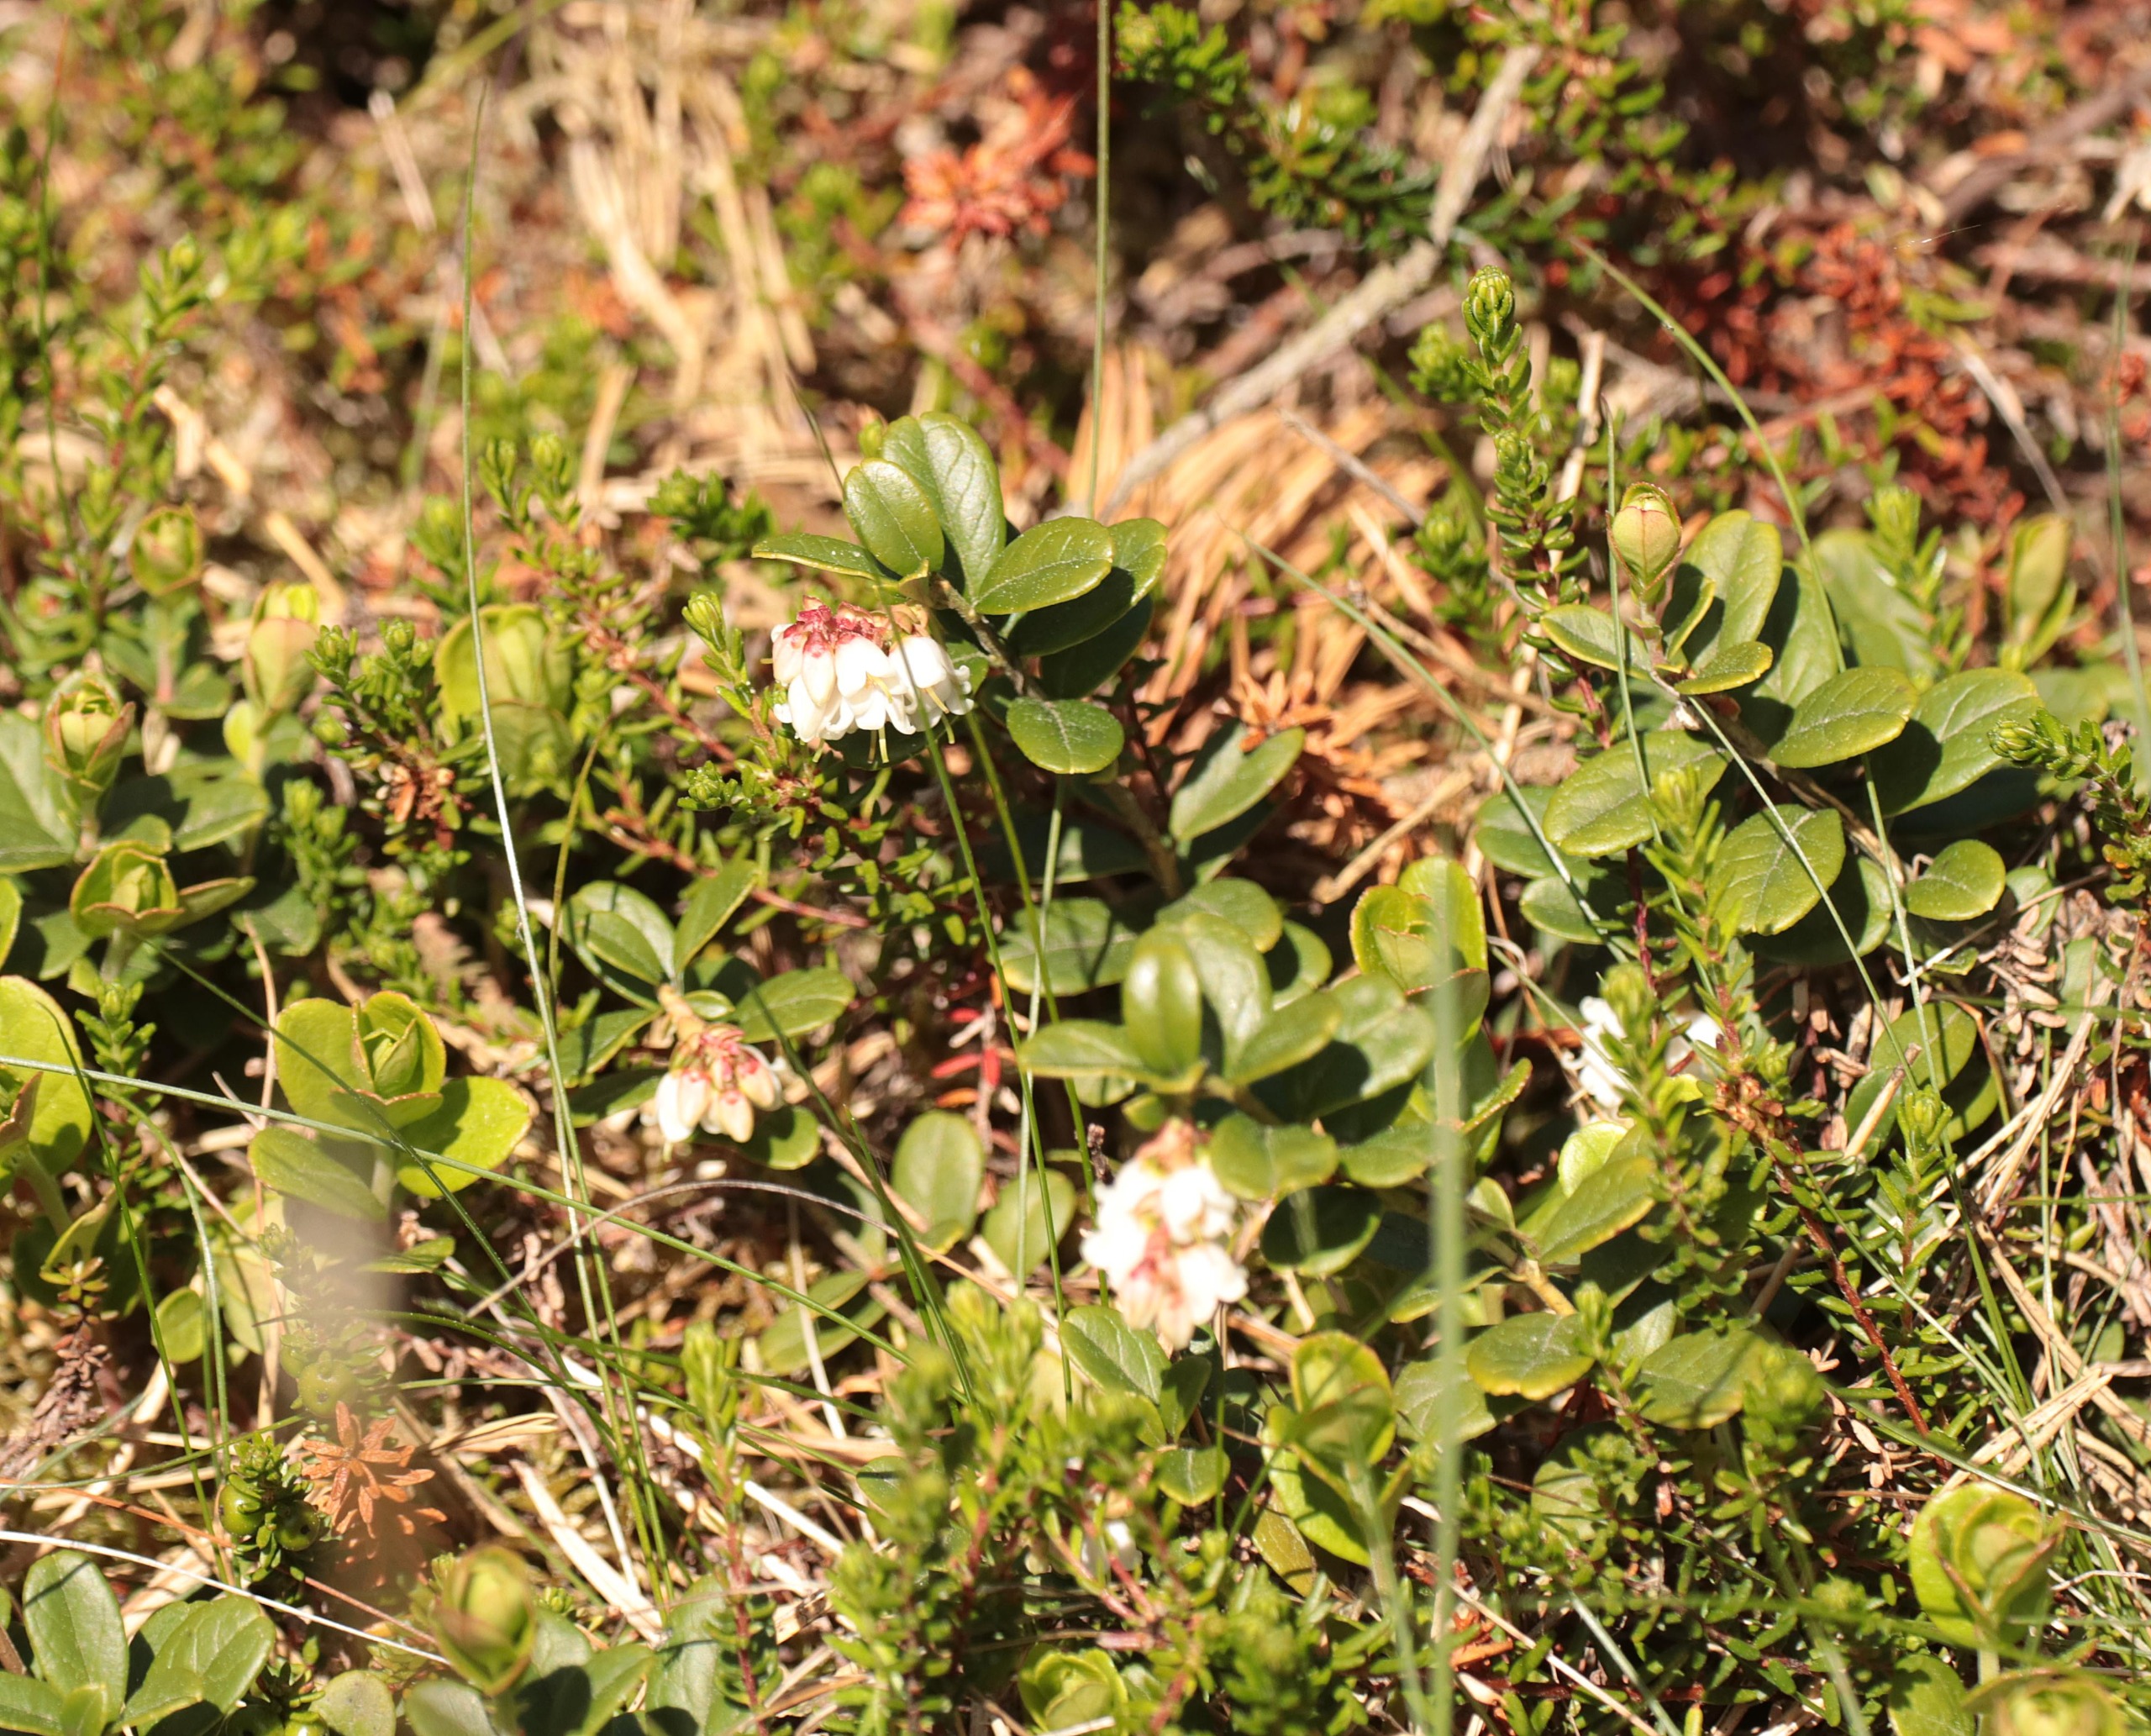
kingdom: Plantae
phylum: Tracheophyta
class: Magnoliopsida
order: Ericales
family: Ericaceae
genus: Vaccinium
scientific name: Vaccinium vitis-idaea
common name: Tyttebær
